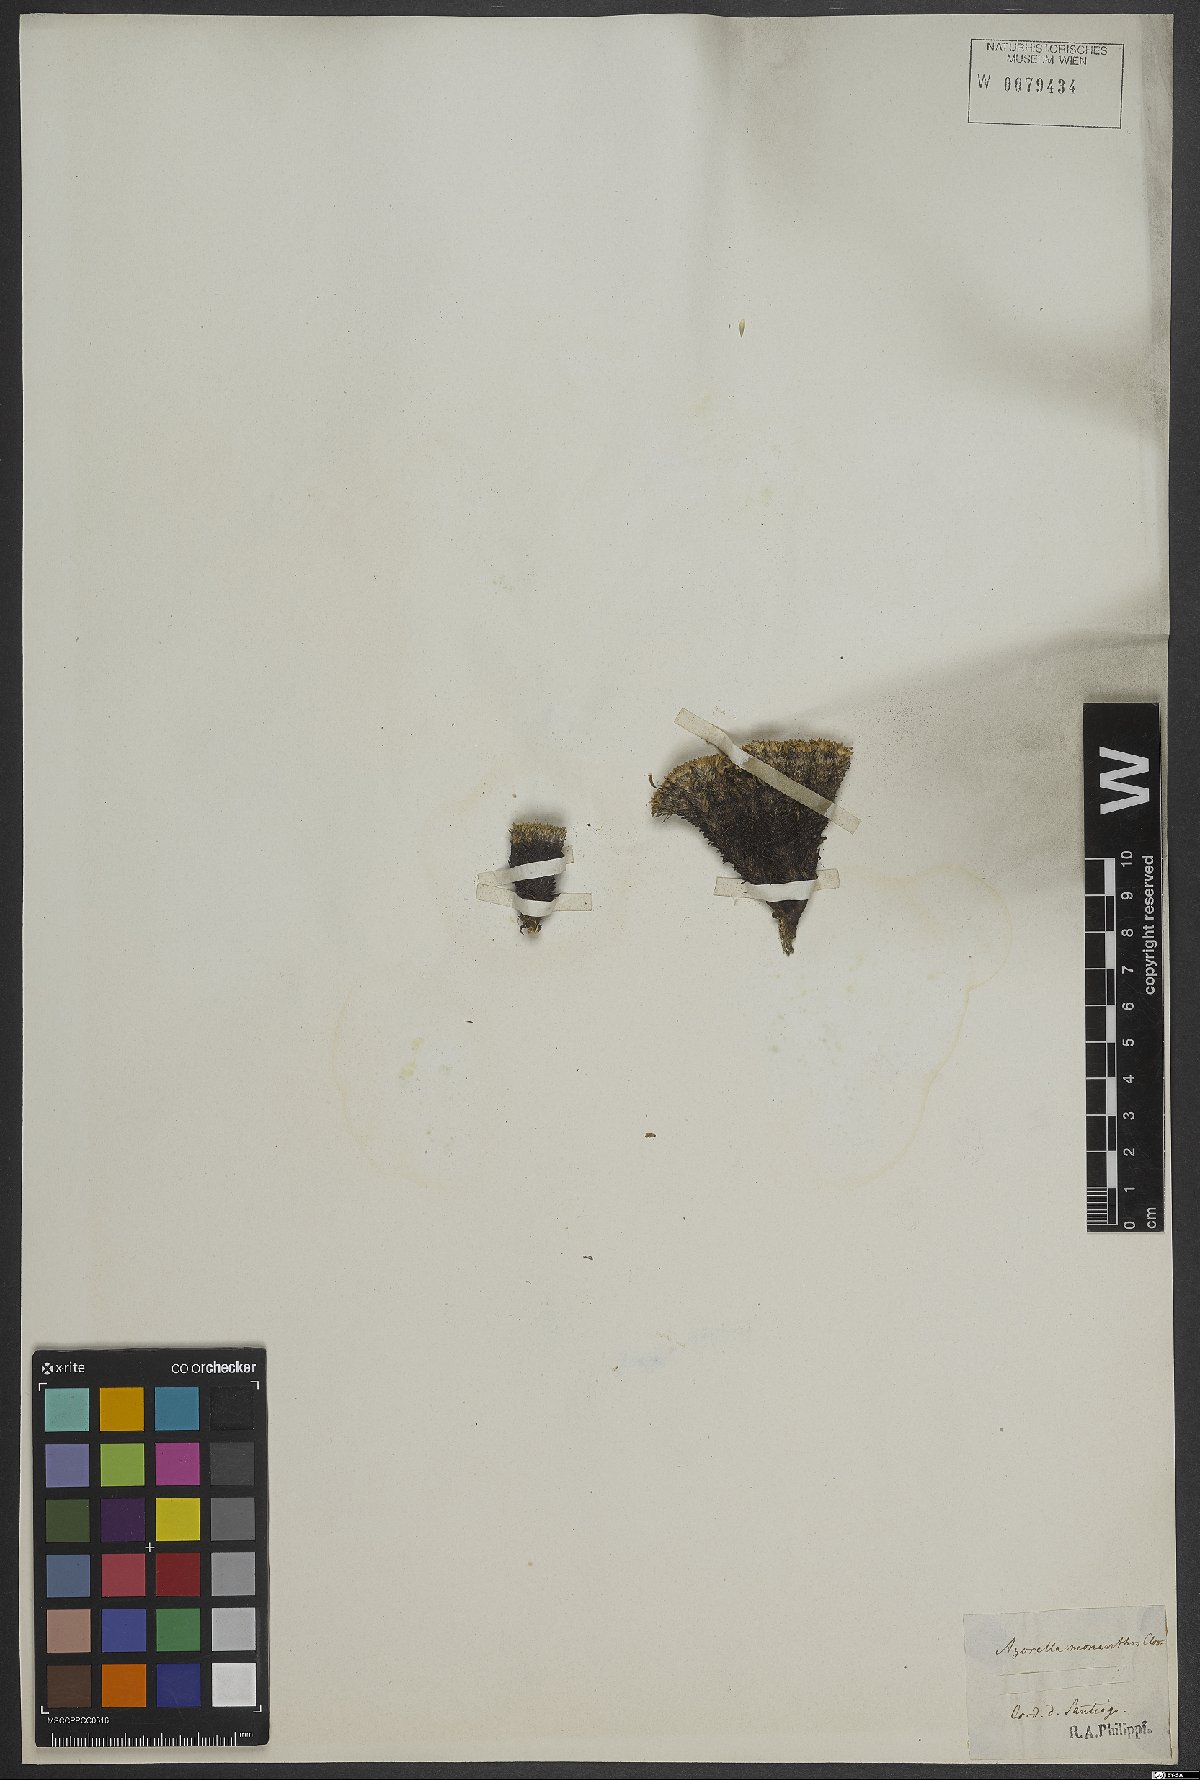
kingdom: Plantae
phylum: Tracheophyta
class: Magnoliopsida
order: Apiales
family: Apiaceae
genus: Azorella
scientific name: Azorella monantha
